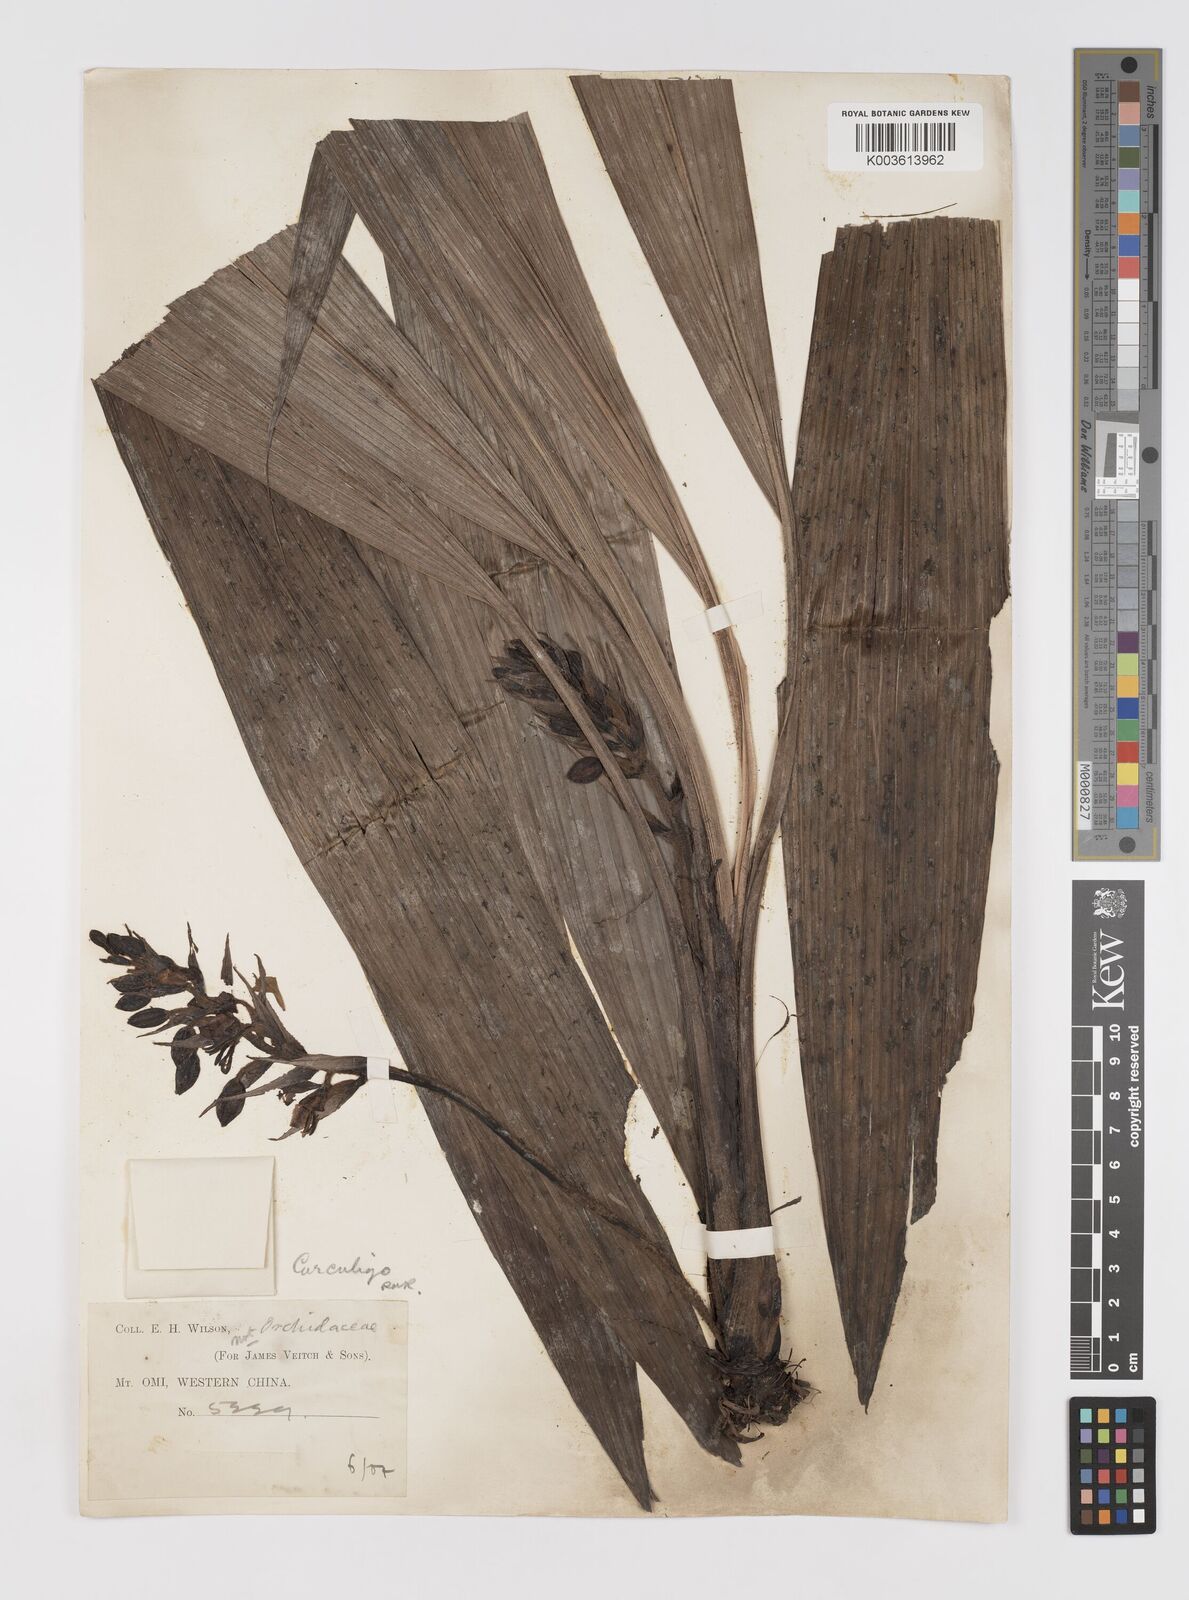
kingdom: Plantae
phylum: Tracheophyta
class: Liliopsida
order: Asparagales
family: Hypoxidaceae
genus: Curculigo
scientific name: Curculigo
